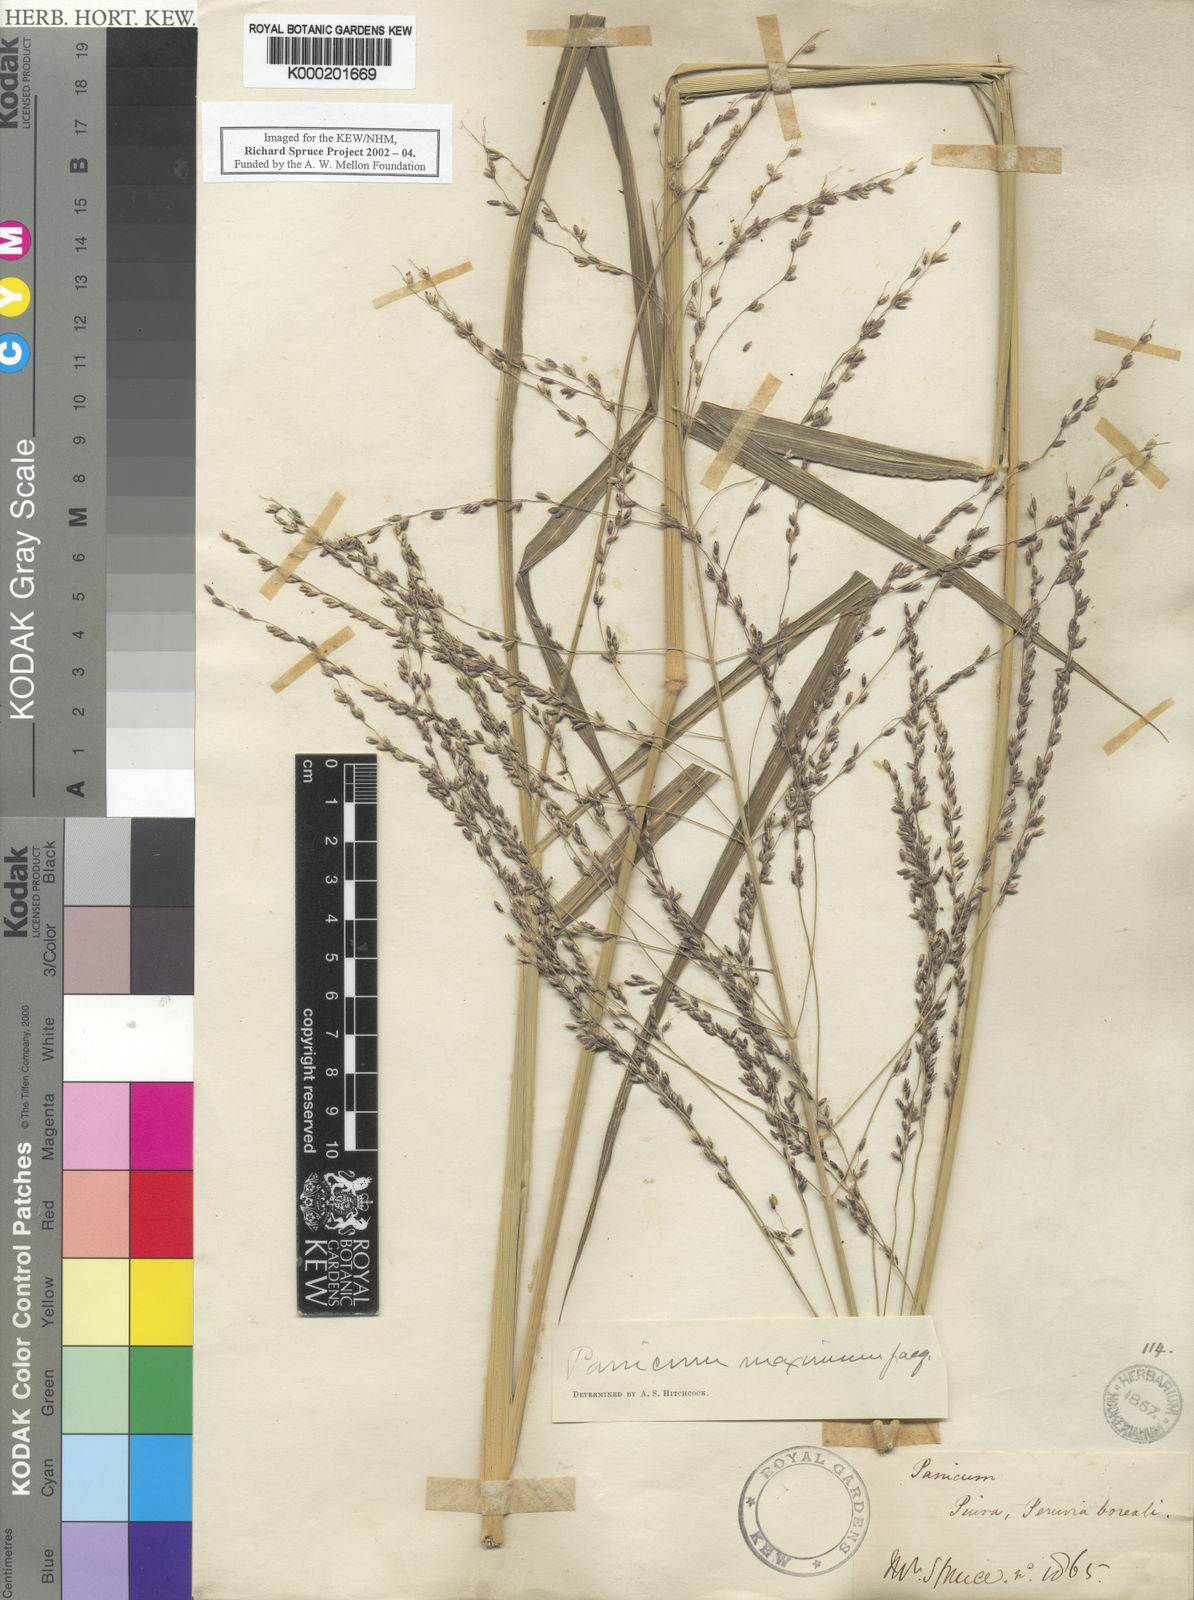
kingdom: Plantae
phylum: Tracheophyta
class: Liliopsida
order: Poales
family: Poaceae
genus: Megathyrsus
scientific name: Megathyrsus maximus
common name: Guineagrass
